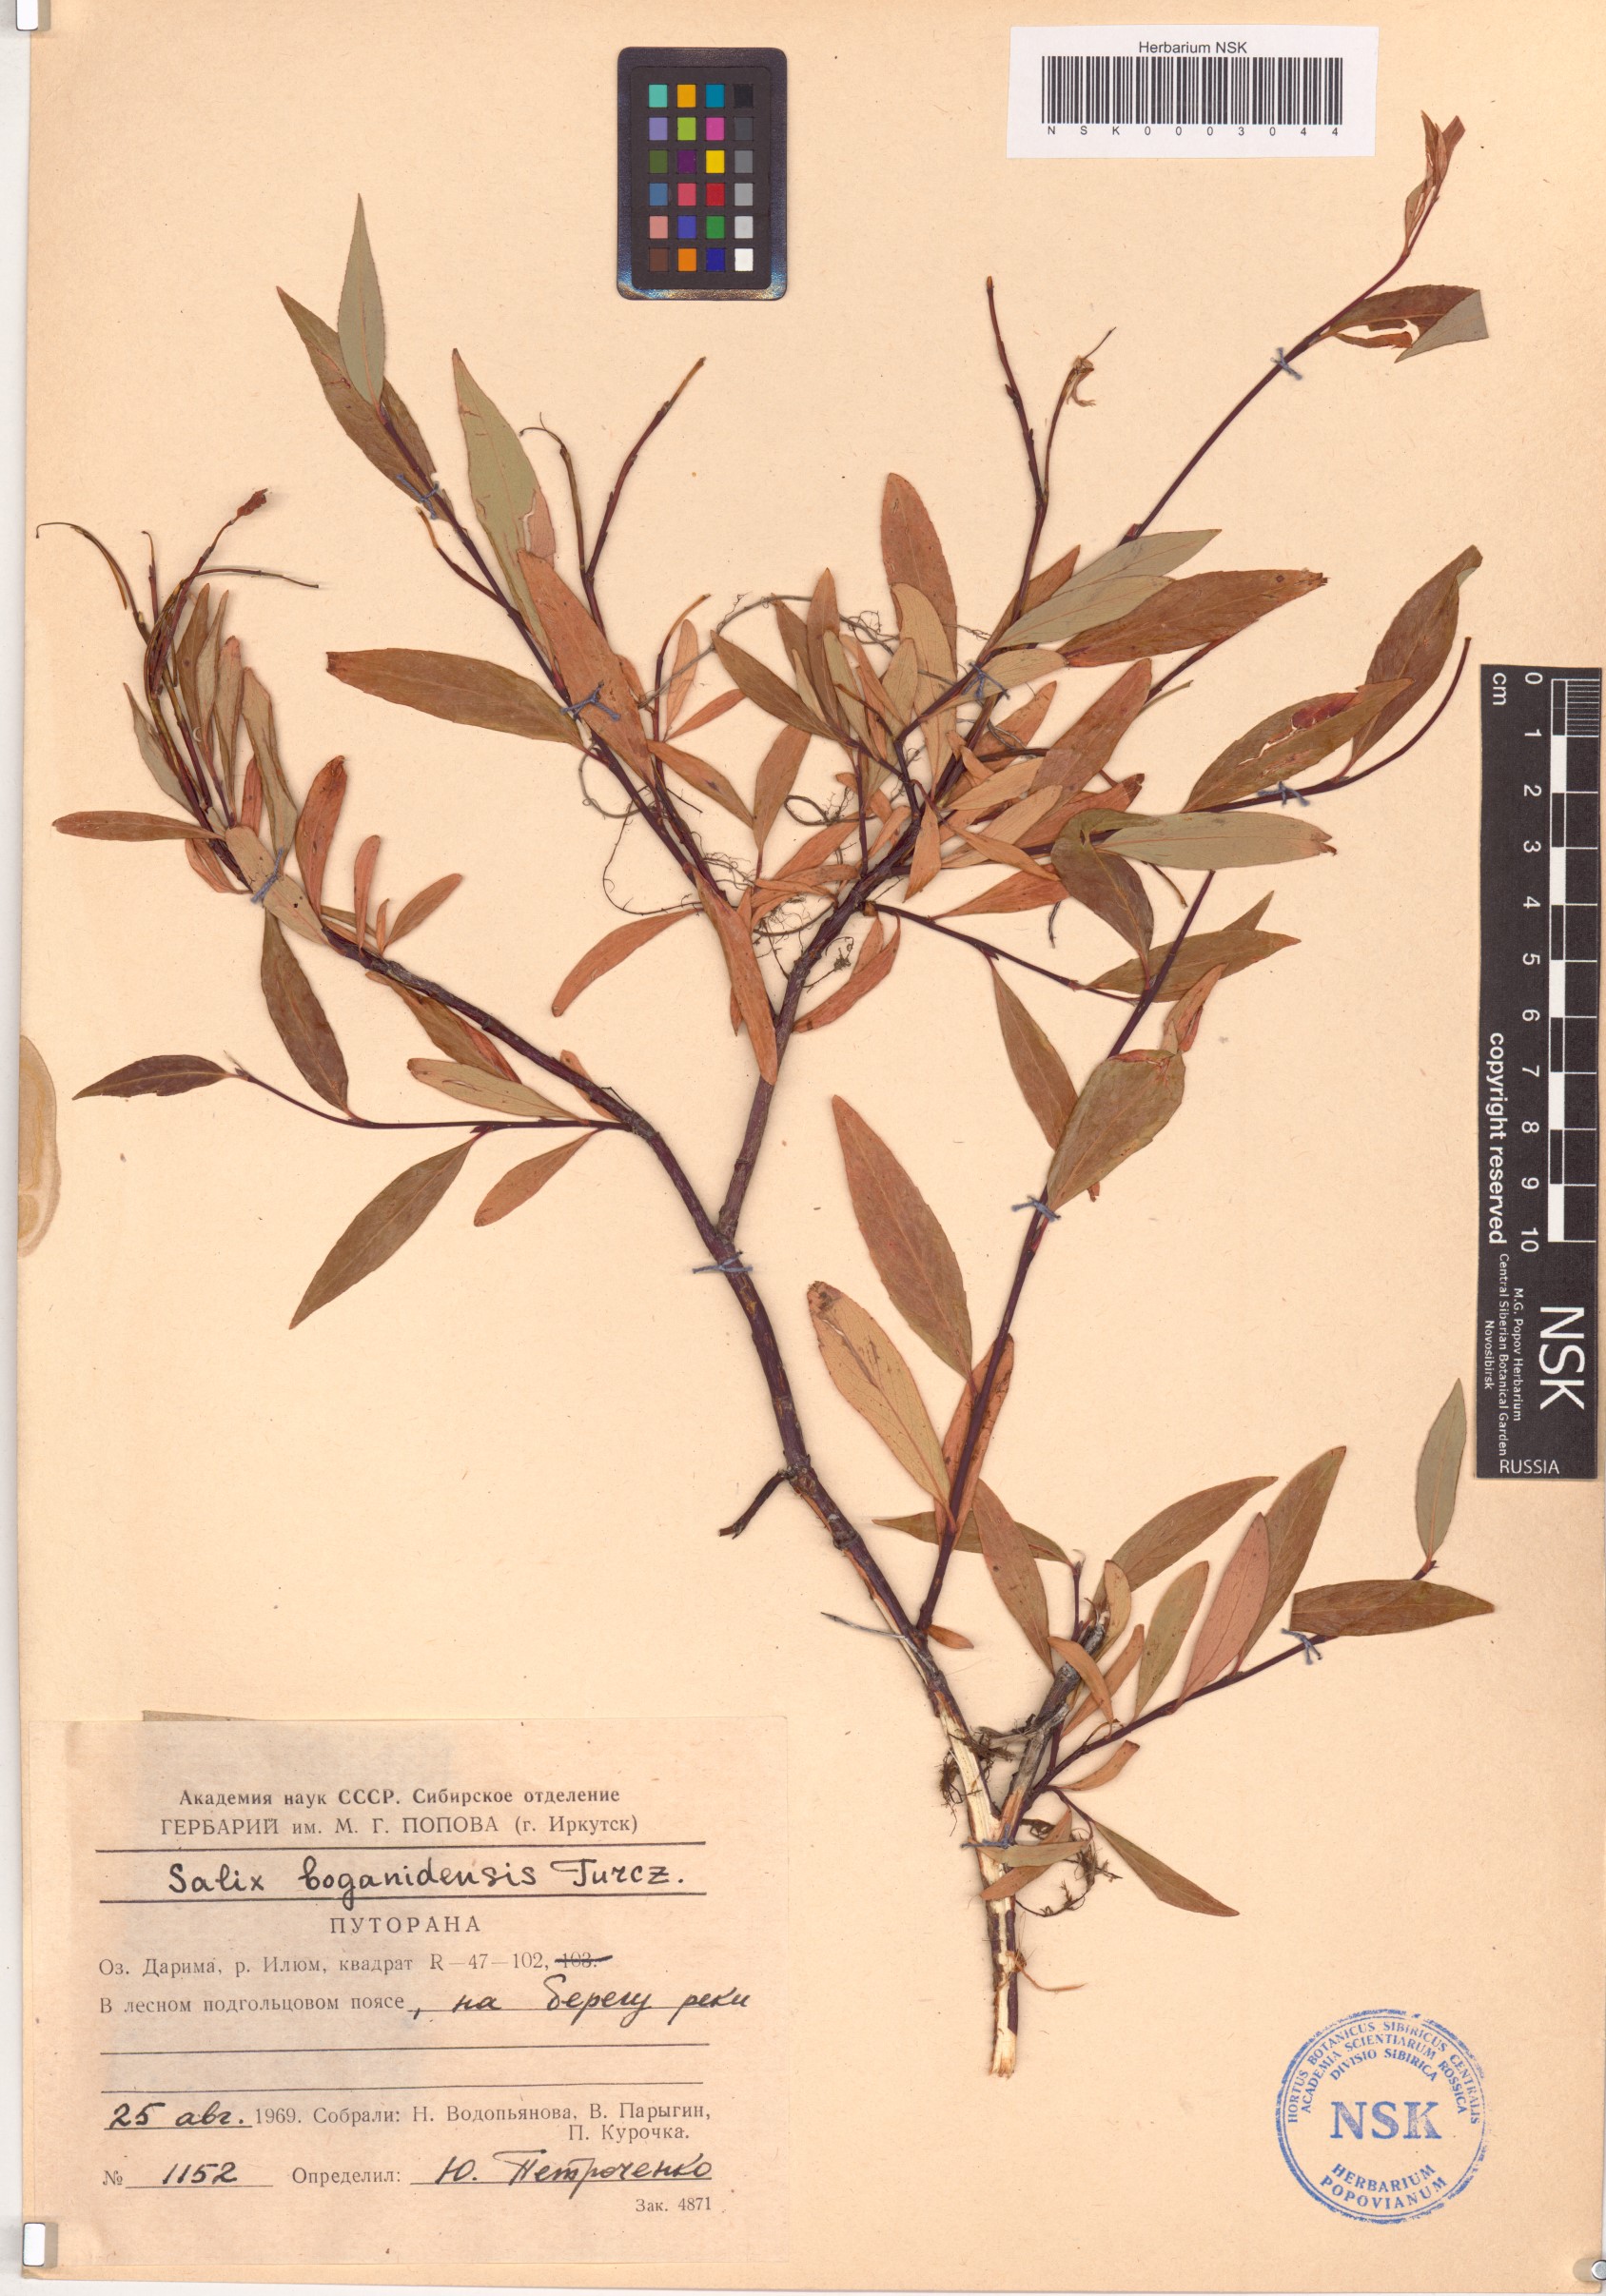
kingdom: Plantae
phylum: Tracheophyta
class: Magnoliopsida
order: Malpighiales
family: Salicaceae
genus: Salix
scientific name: Salix boganidensis
